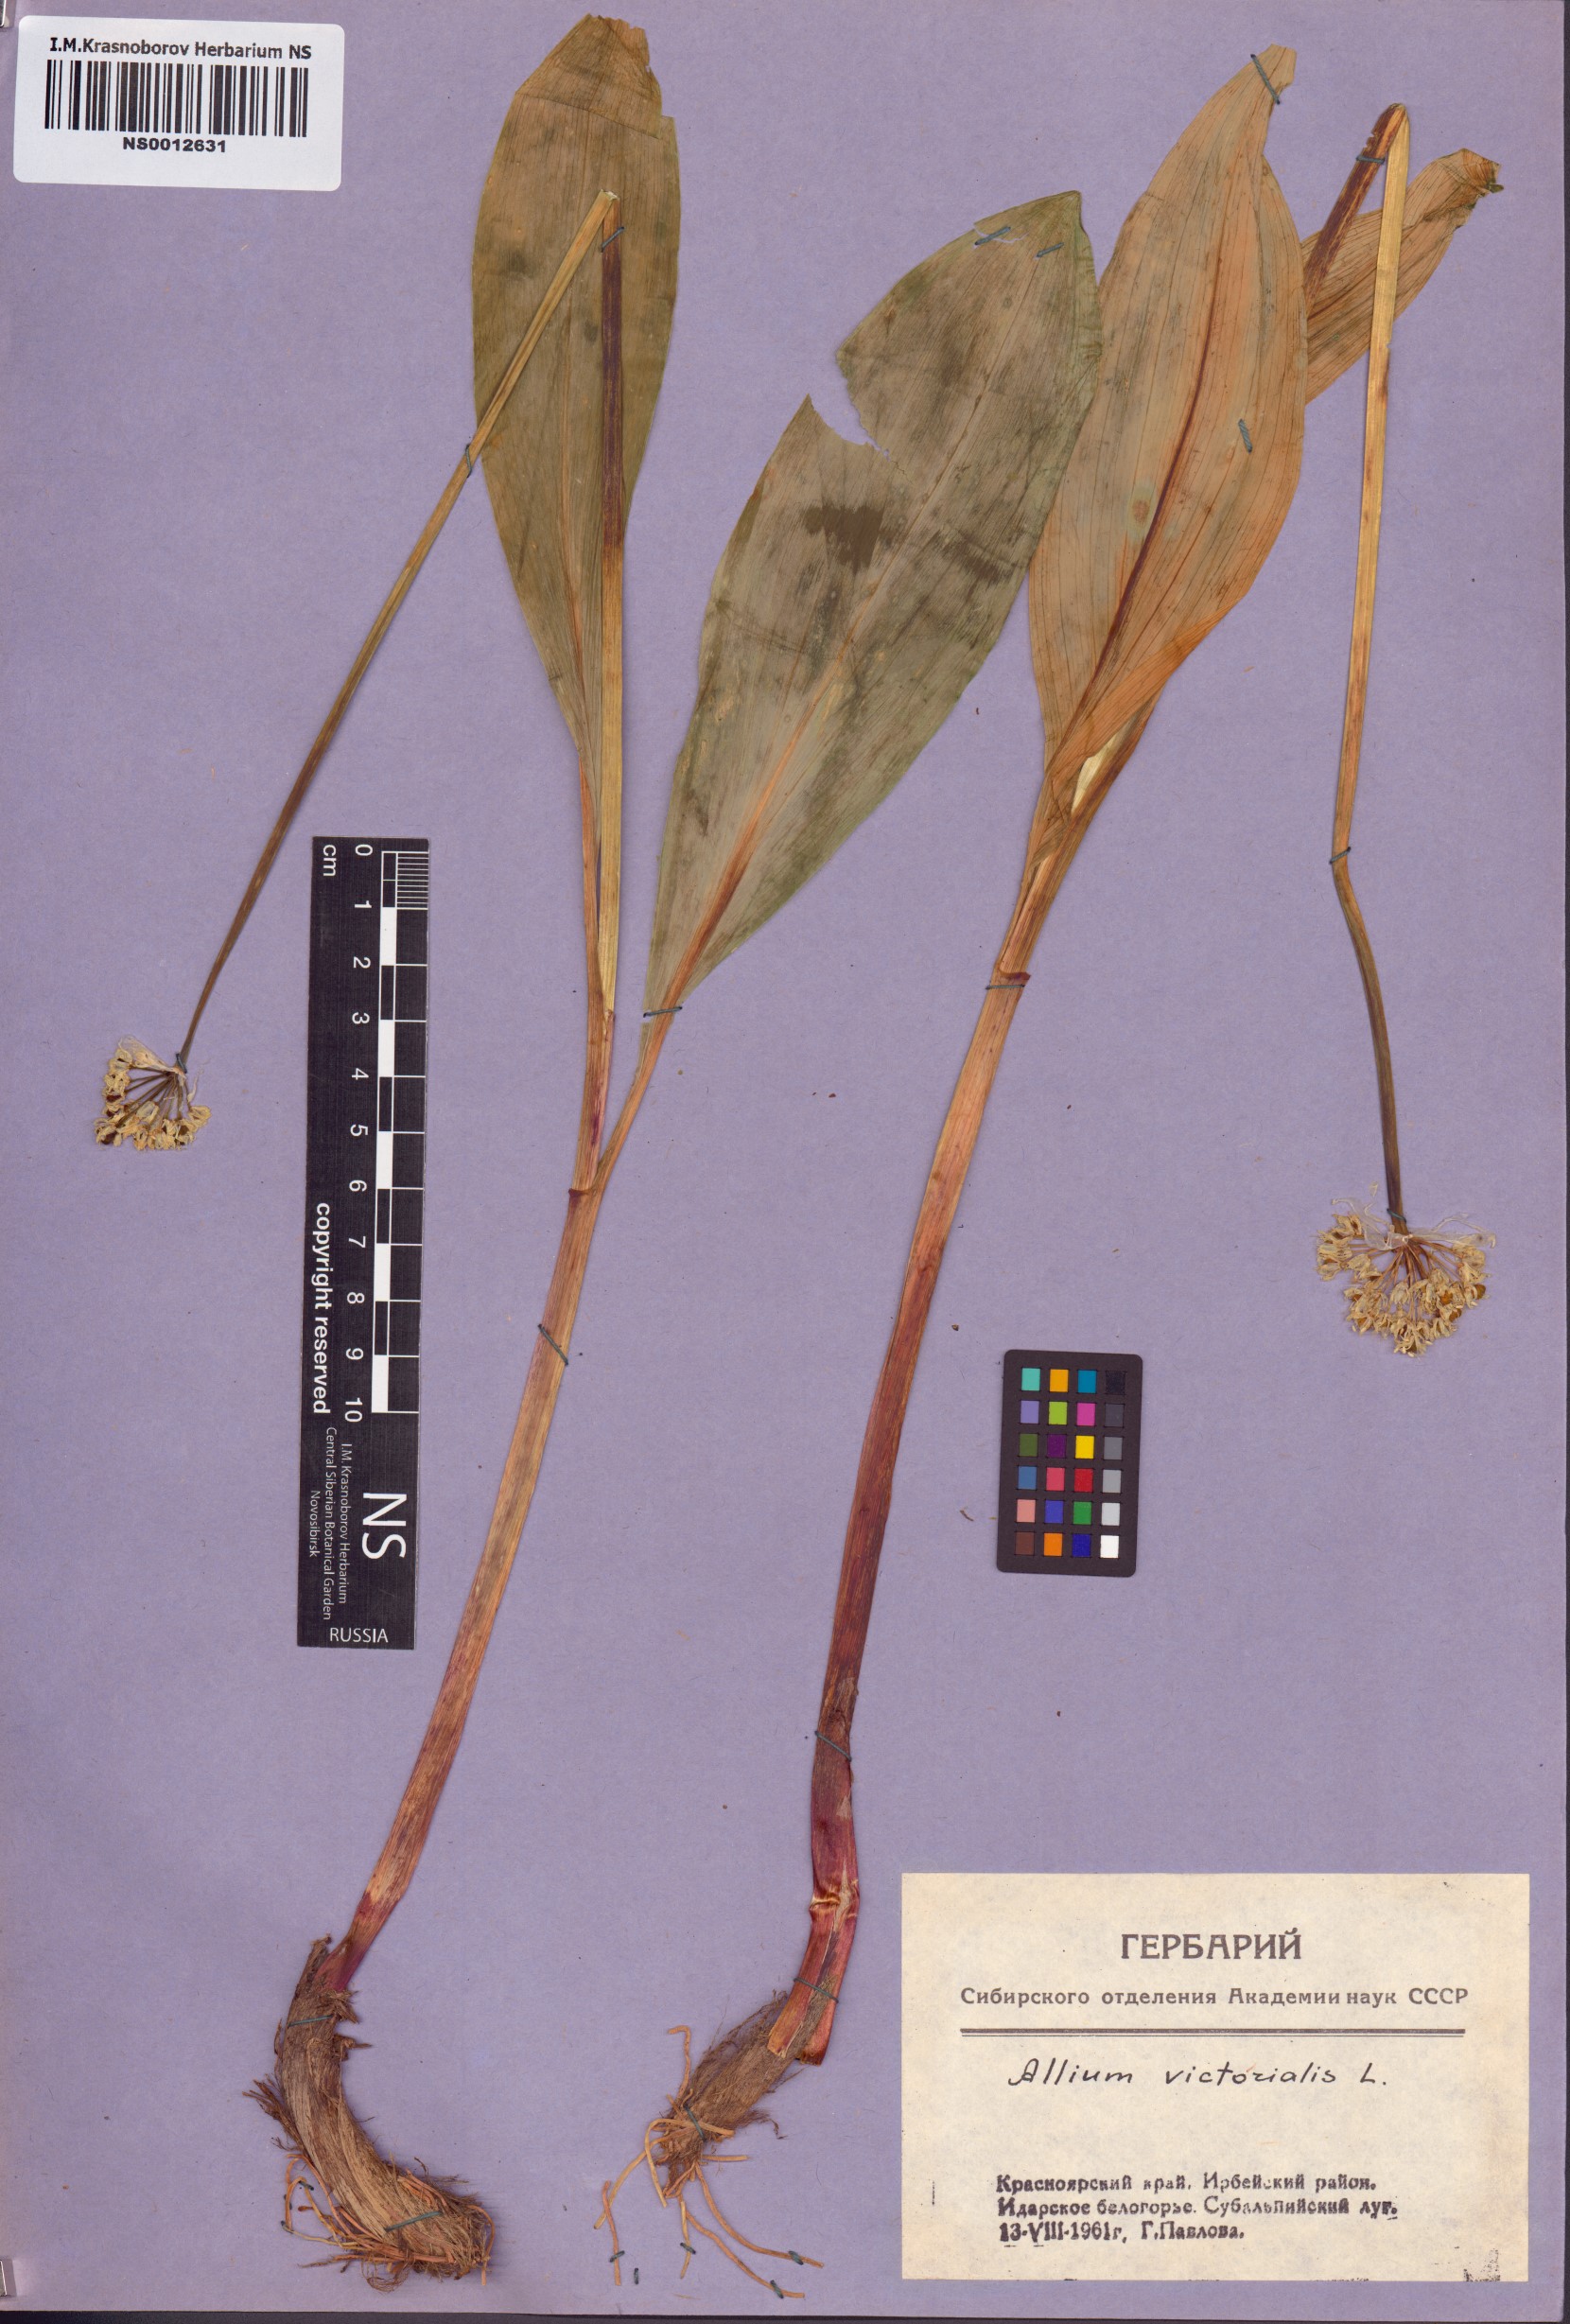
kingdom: Plantae
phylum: Tracheophyta
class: Liliopsida
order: Asparagales
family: Amaryllidaceae
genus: Allium
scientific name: Allium microdictyon
